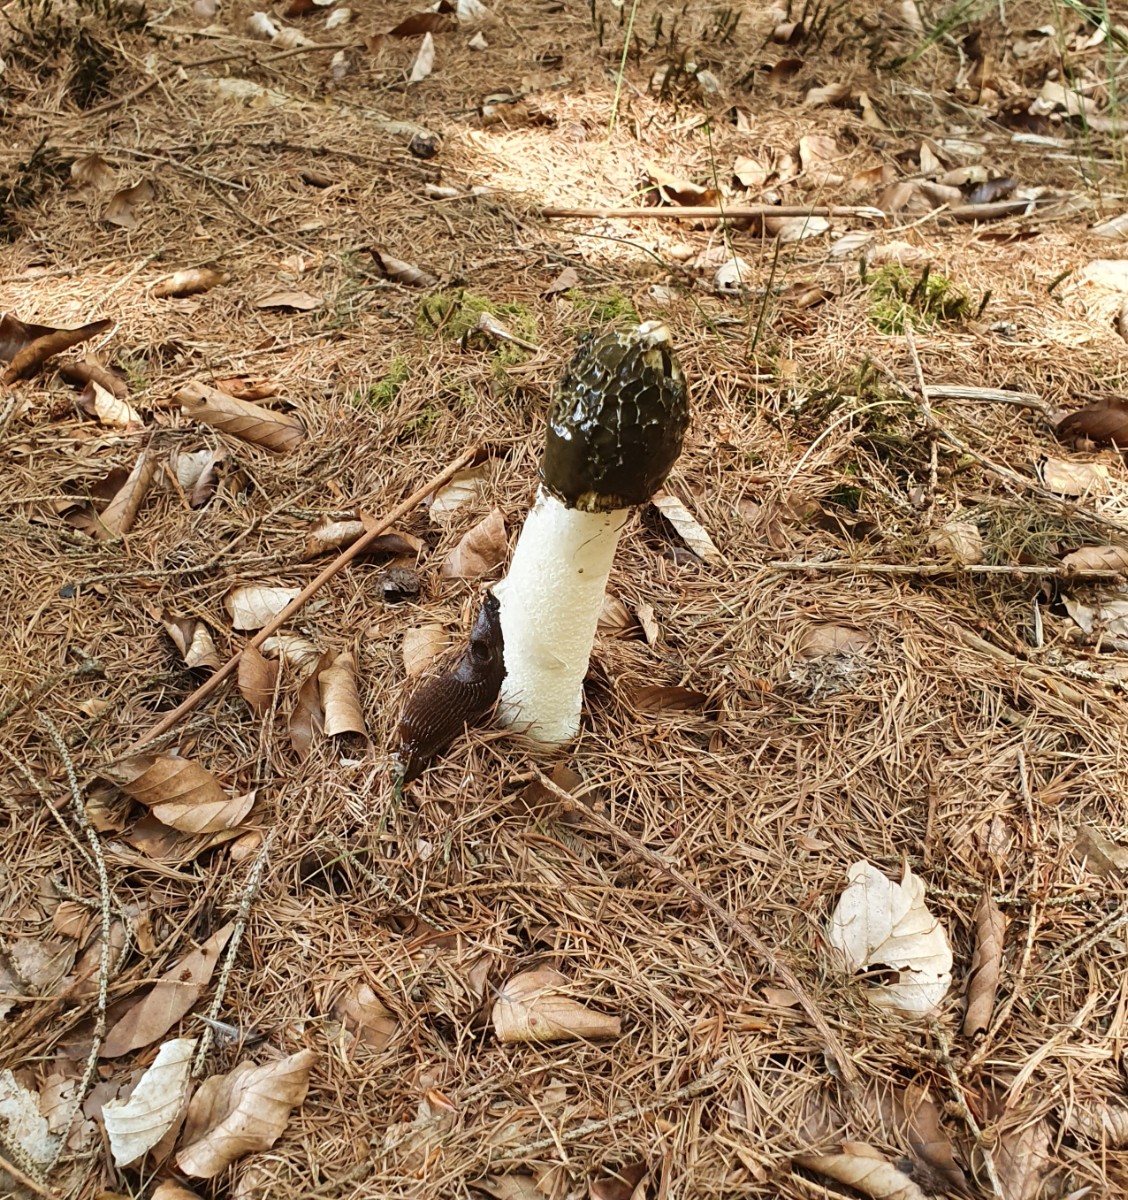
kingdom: Fungi
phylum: Basidiomycota
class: Agaricomycetes
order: Phallales
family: Phallaceae
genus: Phallus
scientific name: Phallus impudicus
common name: almindelig stinksvamp
